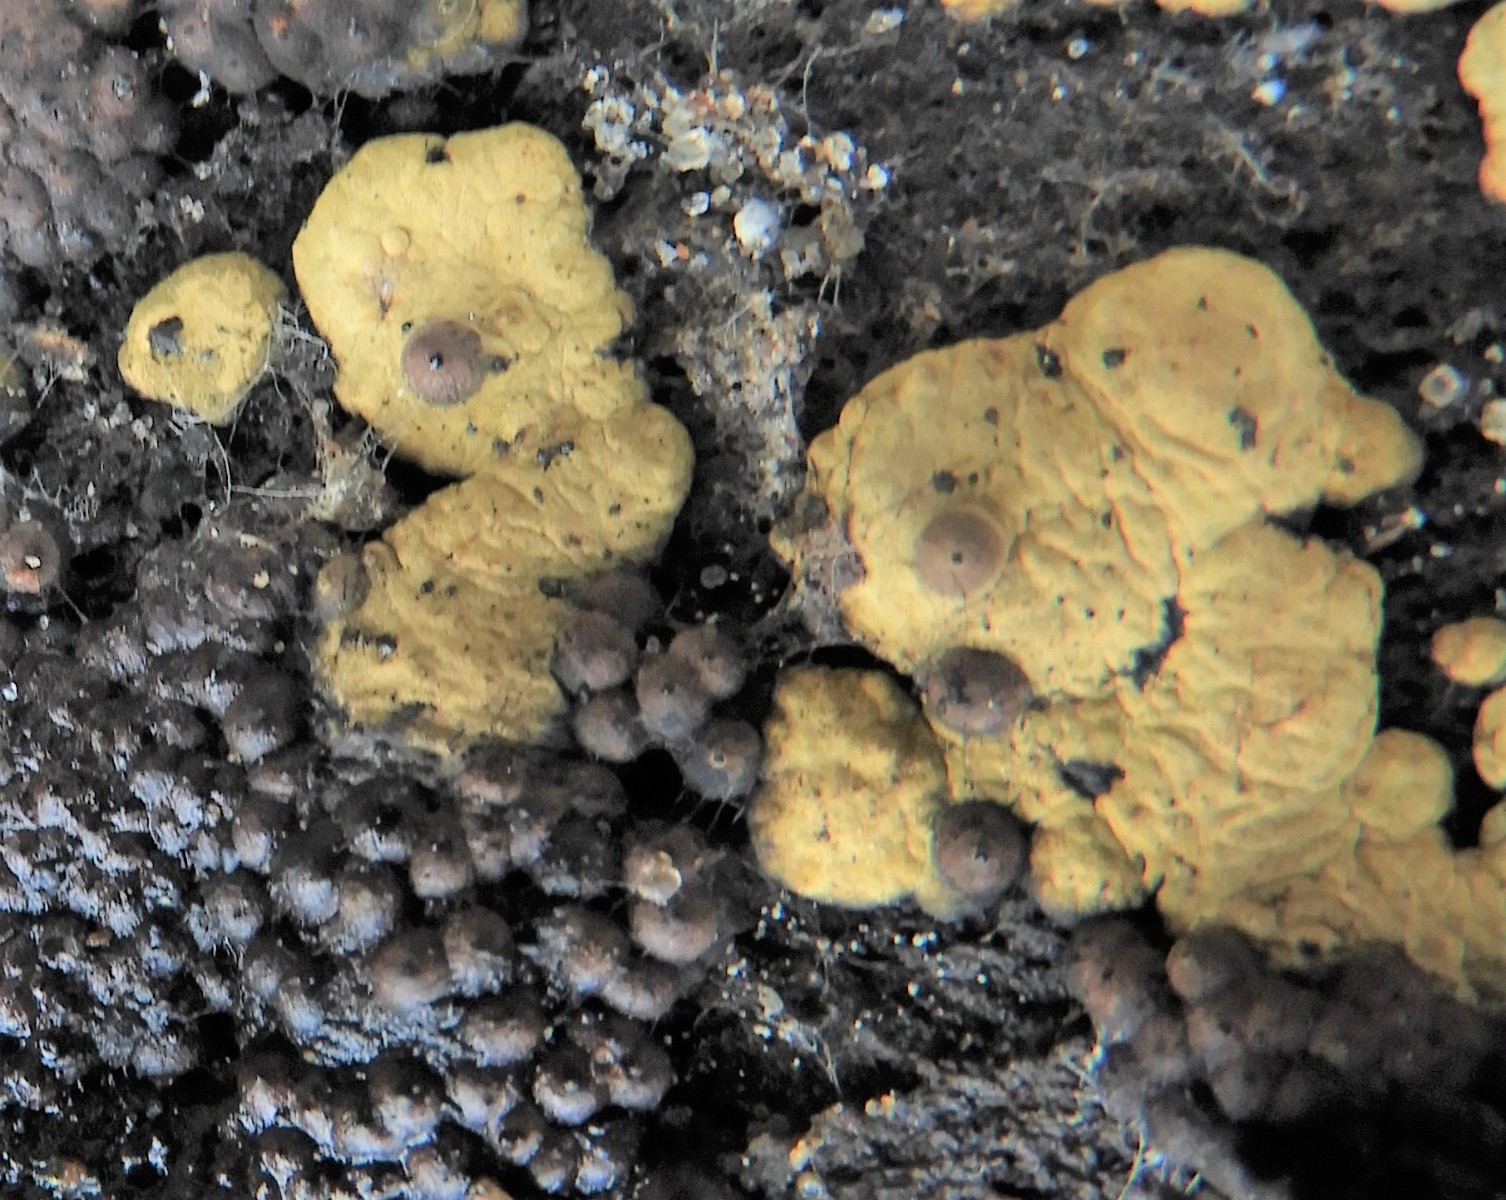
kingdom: Fungi
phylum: Ascomycota
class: Sordariomycetes
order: Xylariales
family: Hypoxylaceae
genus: Jackrogersella
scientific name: Jackrogersella
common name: kulbær
